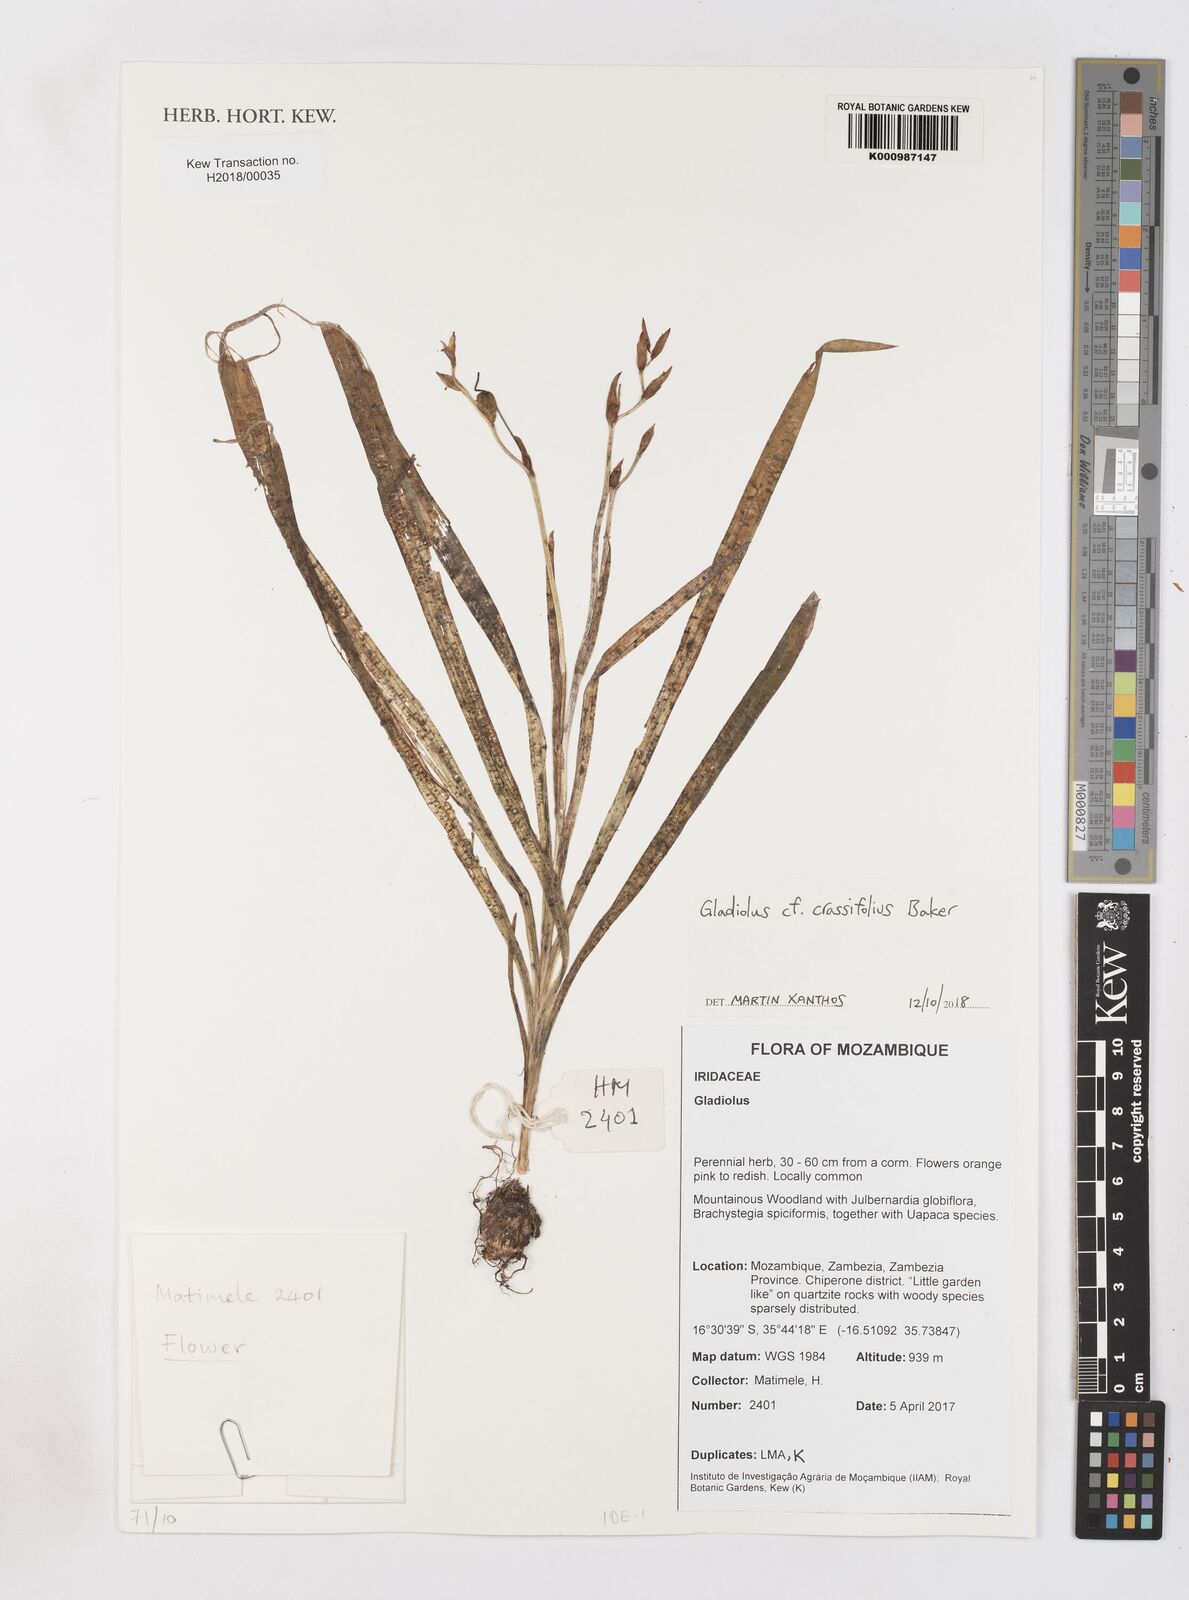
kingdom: Plantae
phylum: Tracheophyta
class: Liliopsida
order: Asparagales
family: Iridaceae
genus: Gladiolus
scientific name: Gladiolus crassifolius
